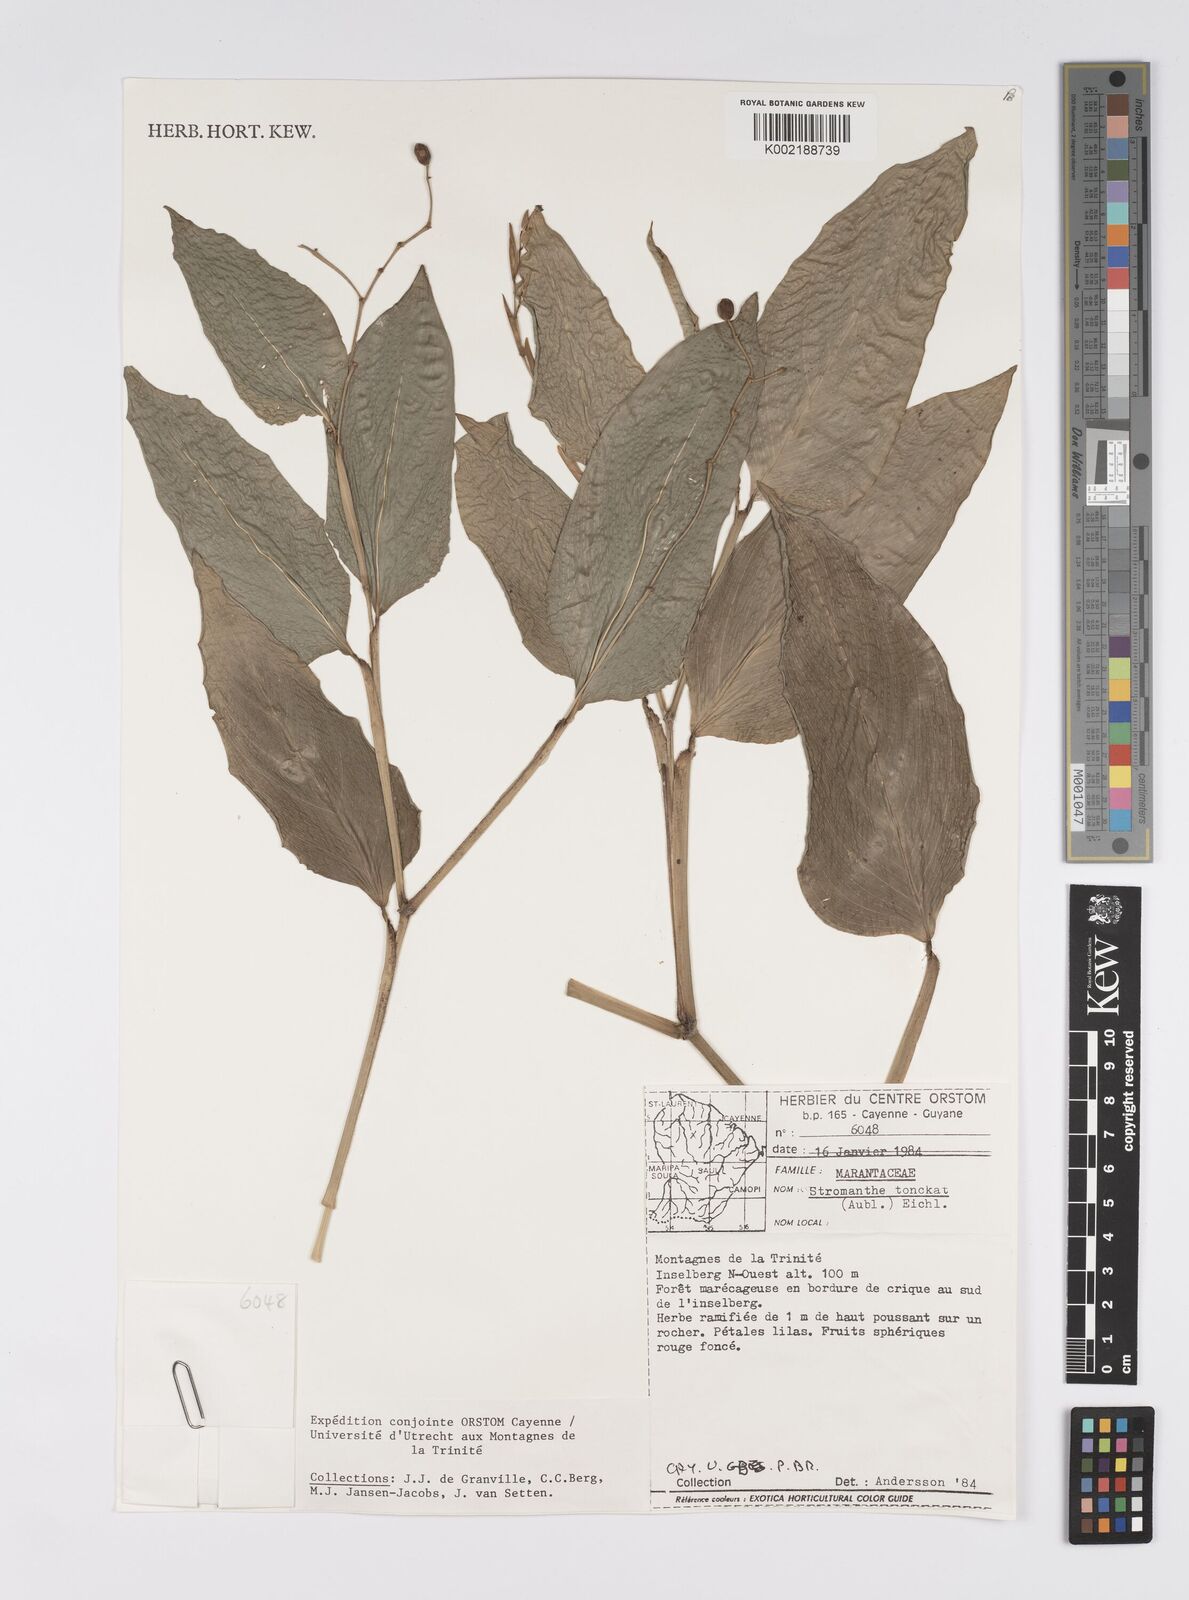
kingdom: Plantae
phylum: Tracheophyta
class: Liliopsida
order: Zingiberales
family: Marantaceae
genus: Stromanthe
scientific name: Stromanthe tonckat
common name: Stromanthe
